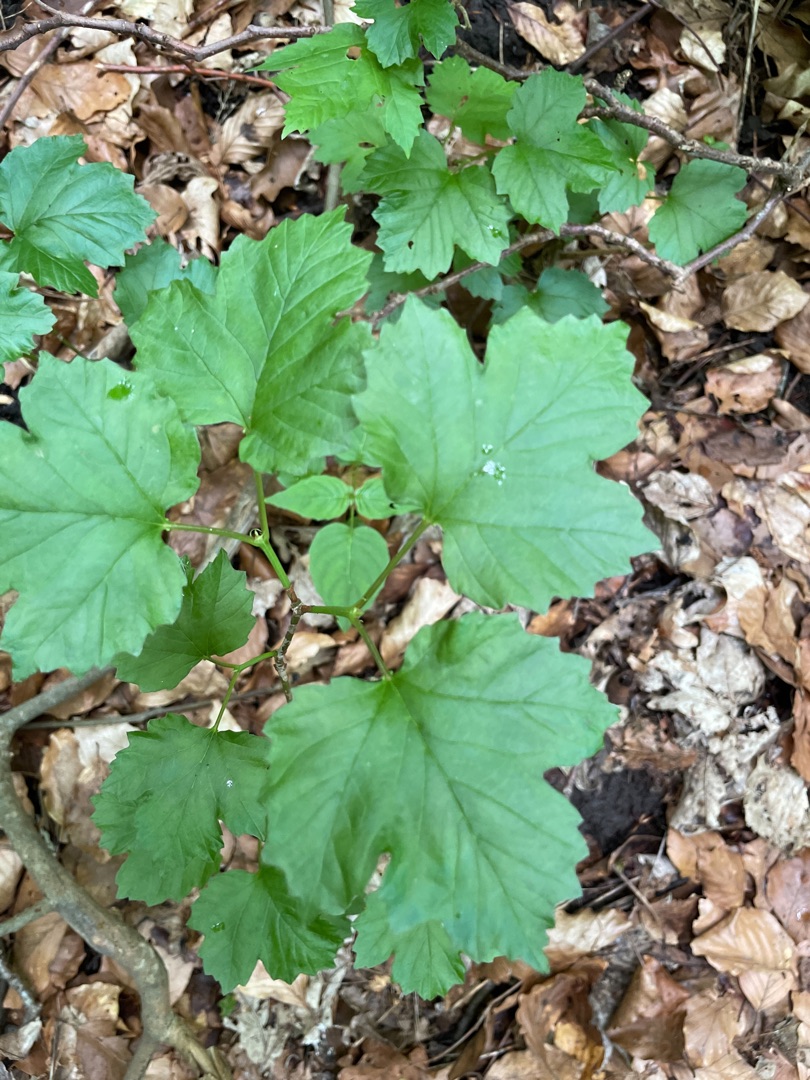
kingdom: Plantae
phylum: Tracheophyta
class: Magnoliopsida
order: Dipsacales
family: Viburnaceae
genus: Viburnum
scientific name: Viburnum opulus
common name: Kvalkved
